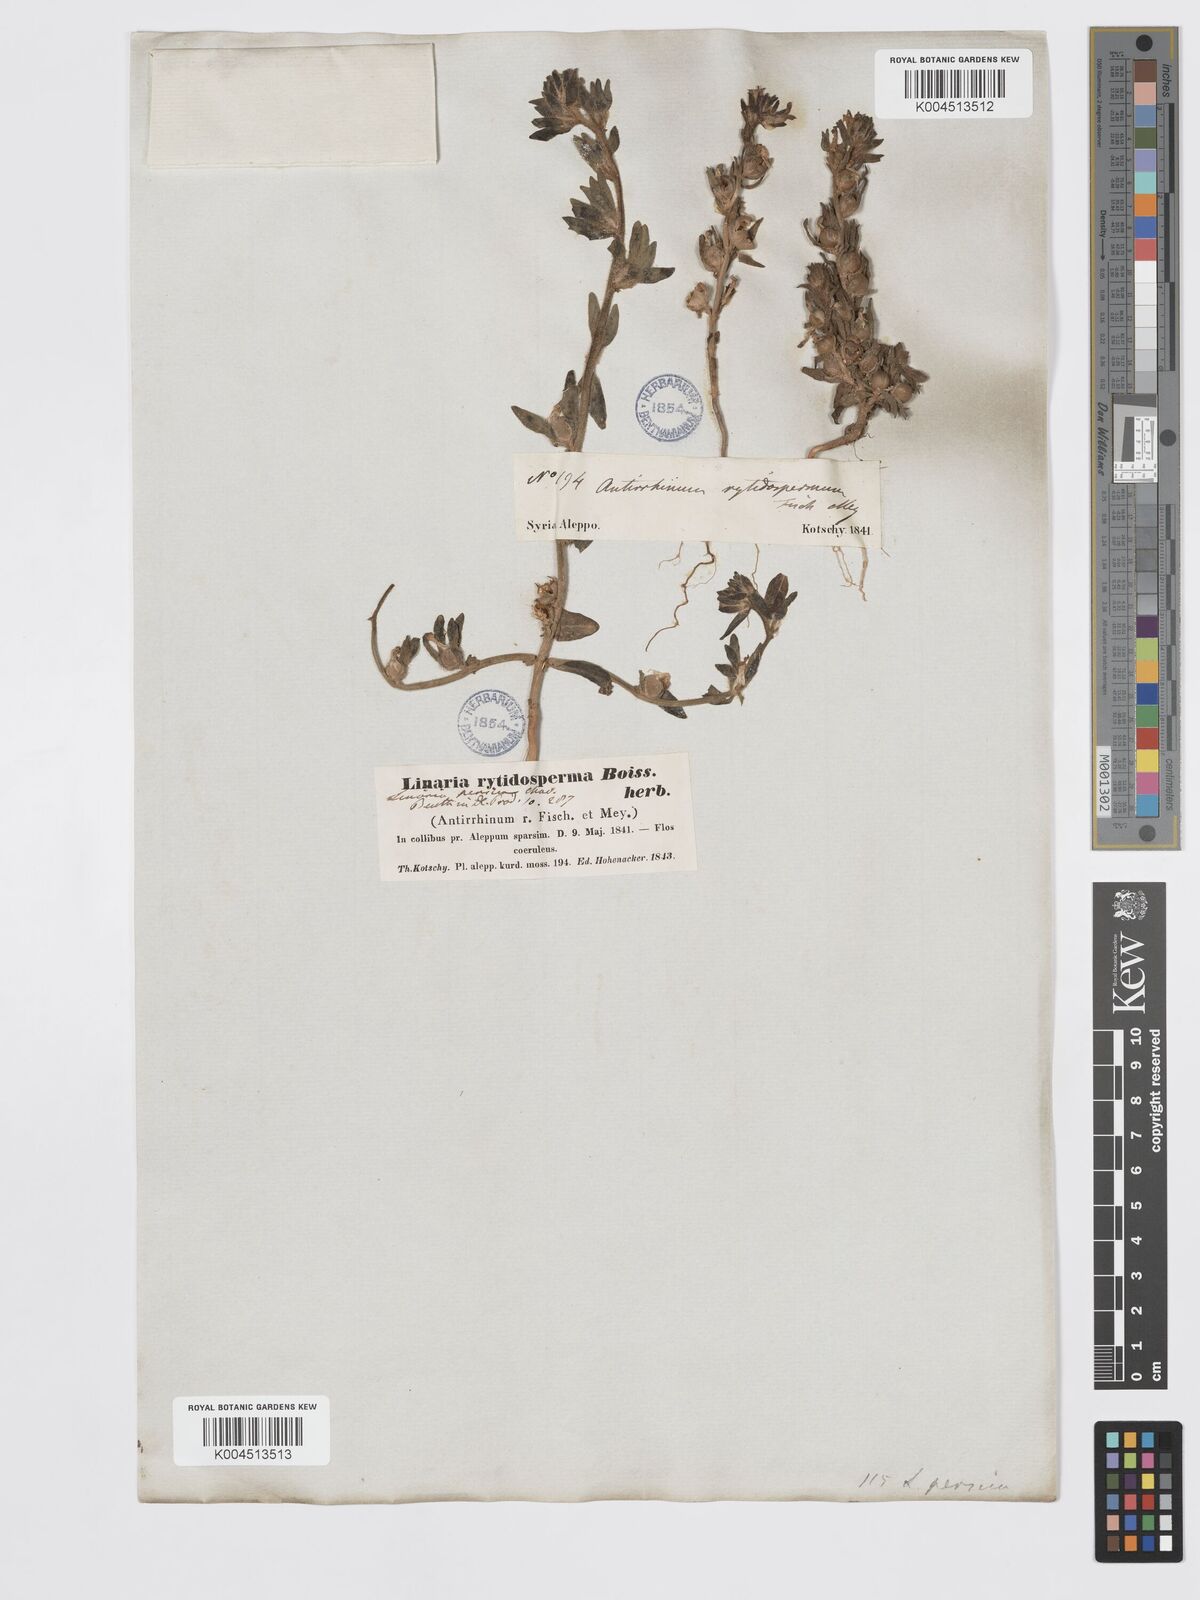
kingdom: Plantae
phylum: Tracheophyta
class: Magnoliopsida
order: Lamiales
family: Plantaginaceae
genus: Chaenorhinum
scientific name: Chaenorhinum calycinum
